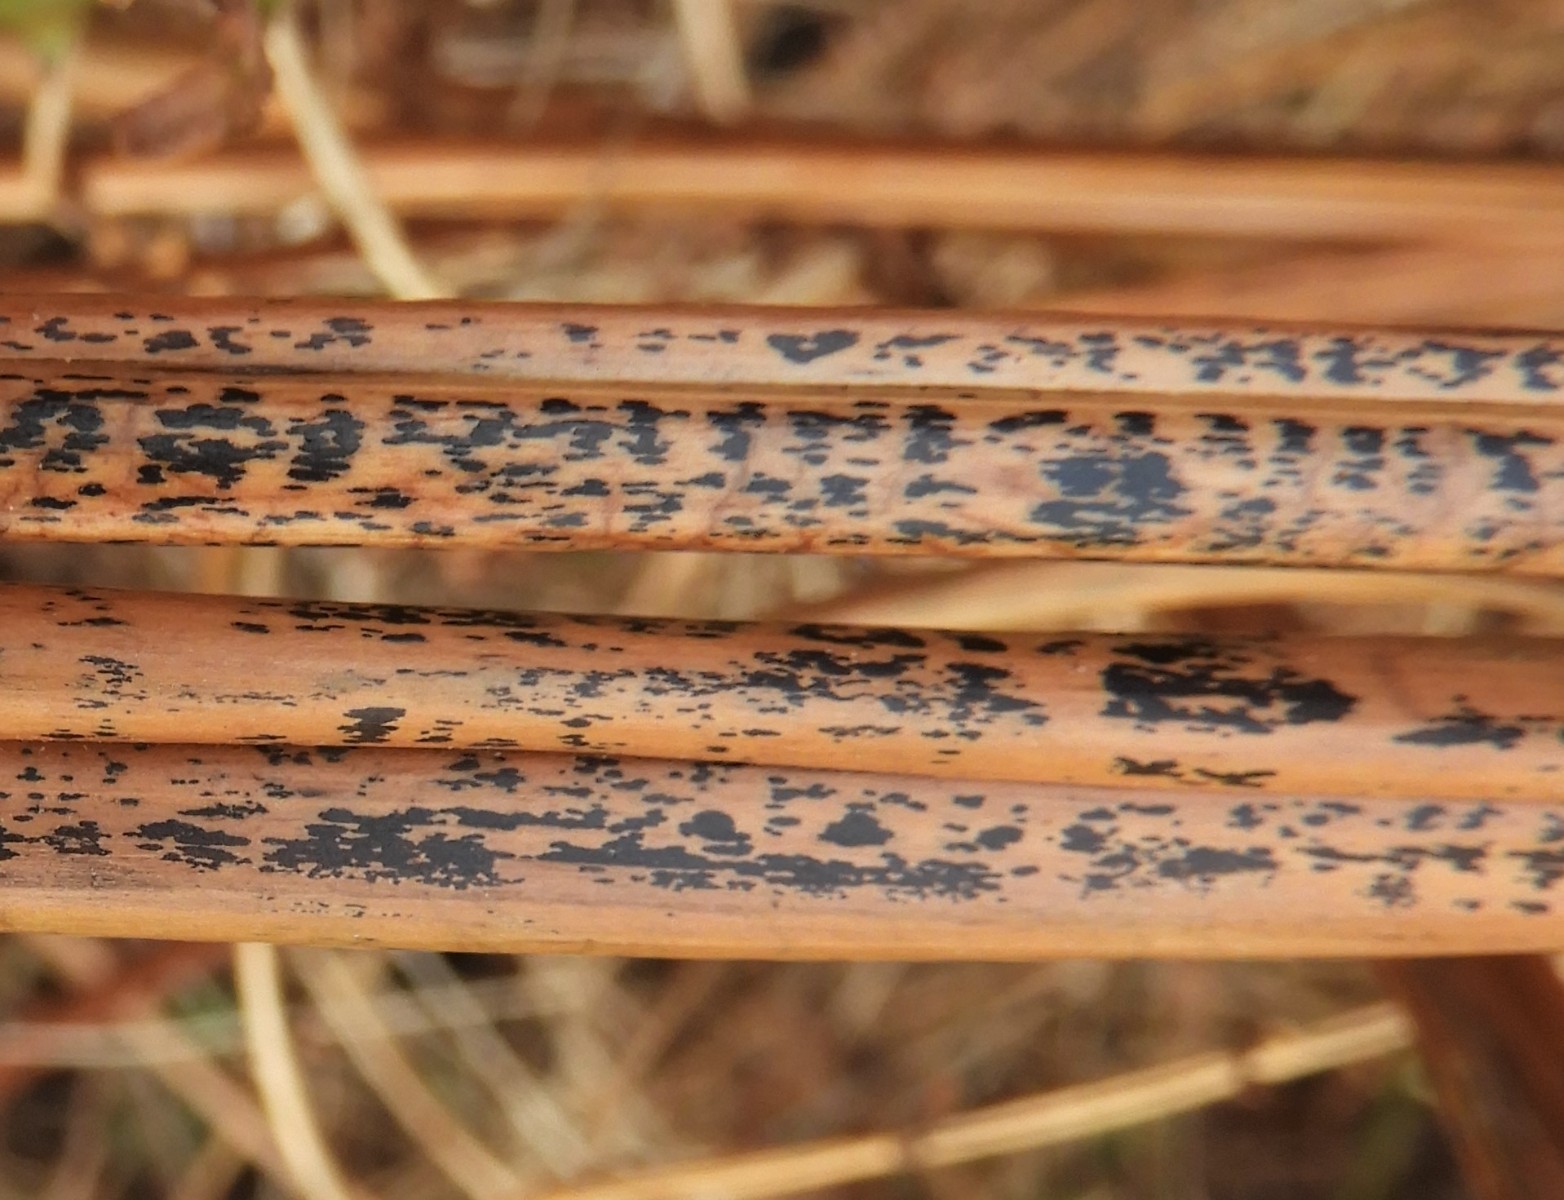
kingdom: Fungi
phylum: Ascomycota
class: Dothideomycetes
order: Pleosporales
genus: Rhopographus
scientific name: Rhopographus filicinus
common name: Bracken map
